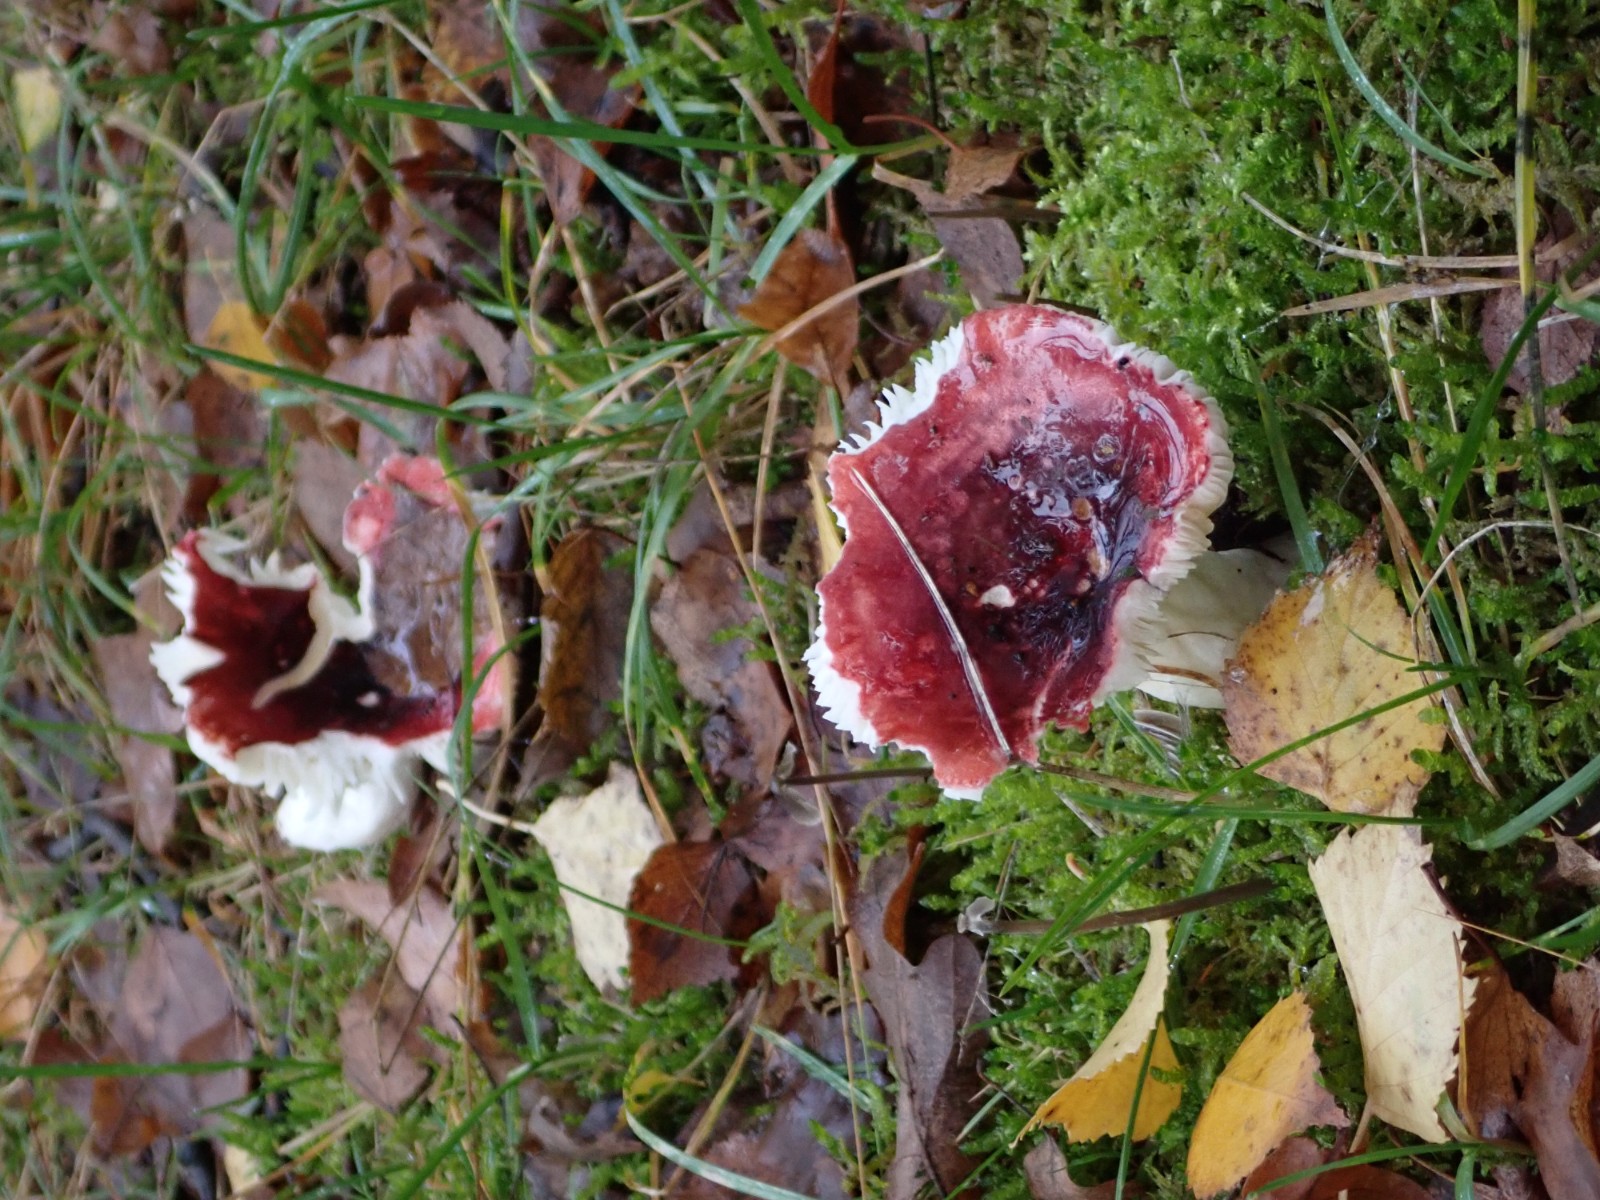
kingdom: Fungi
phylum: Basidiomycota
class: Agaricomycetes
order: Russulales
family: Russulaceae
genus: Russula
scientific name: Russula
